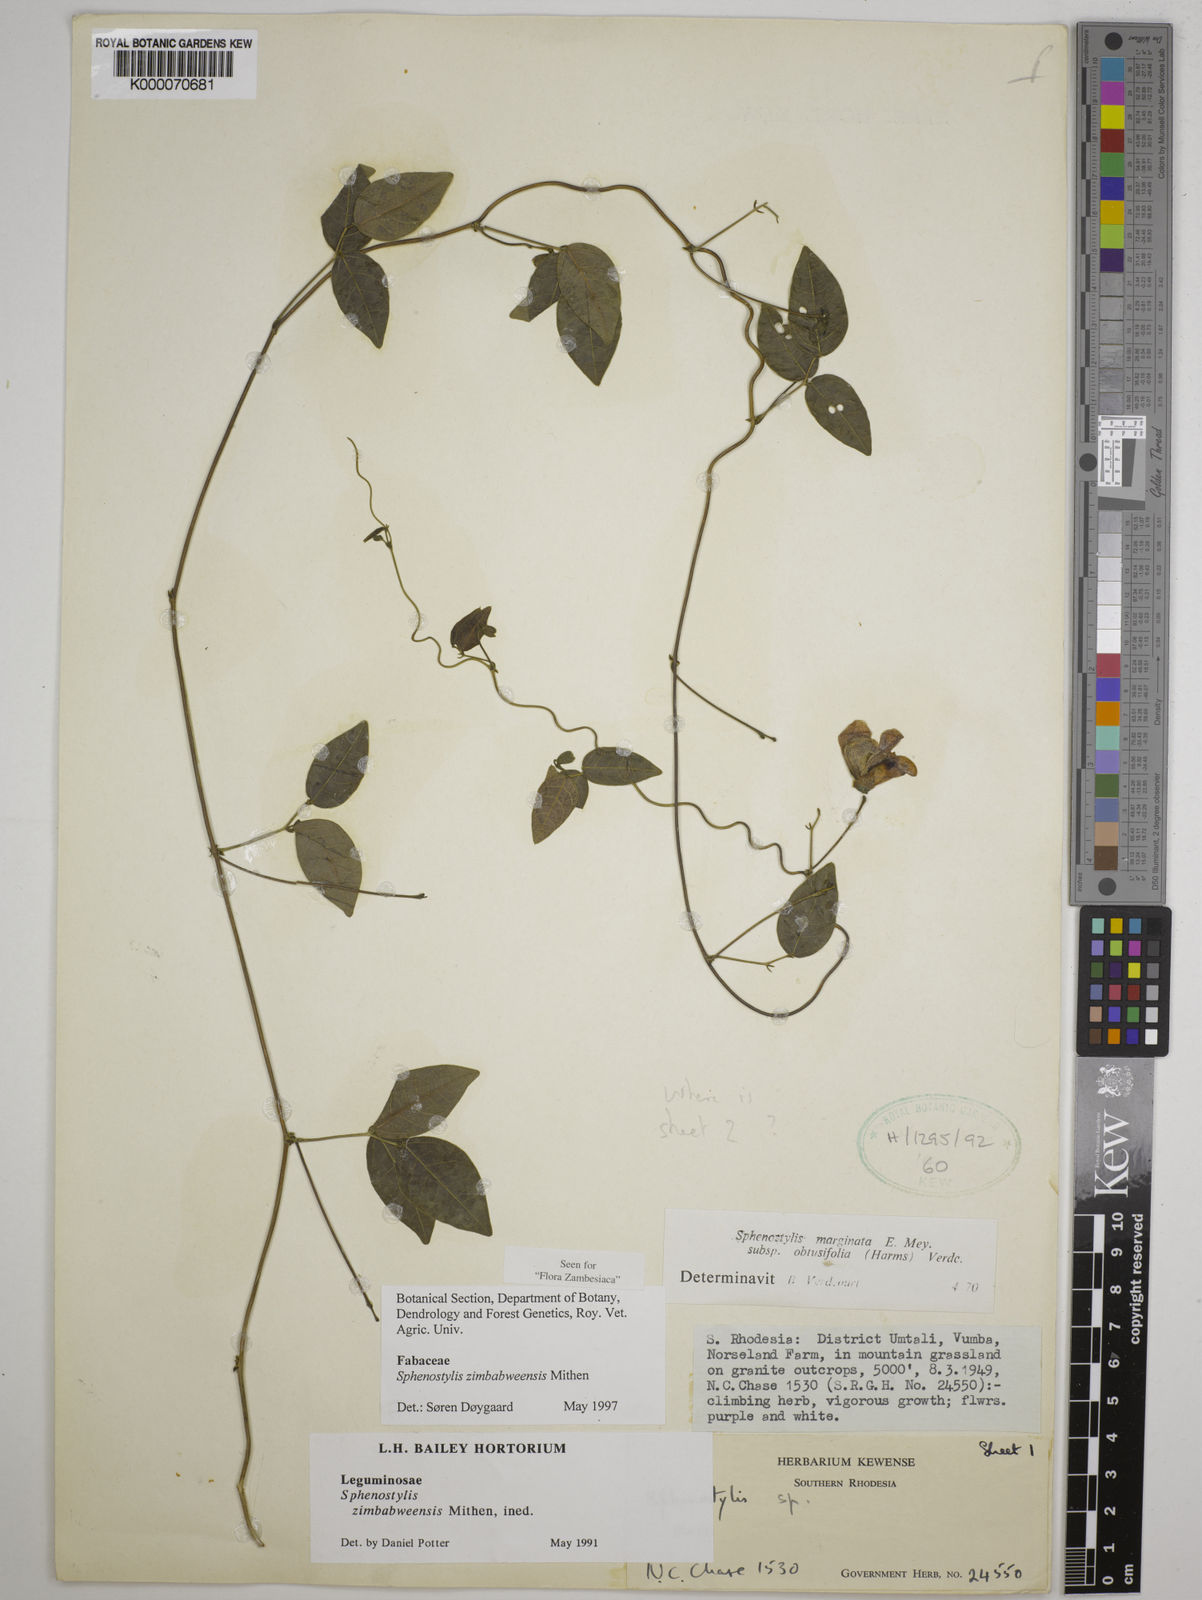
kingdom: Plantae
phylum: Tracheophyta
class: Magnoliopsida
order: Fabales
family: Fabaceae
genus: Sphenostylis
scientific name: Sphenostylis zimbabweensis
